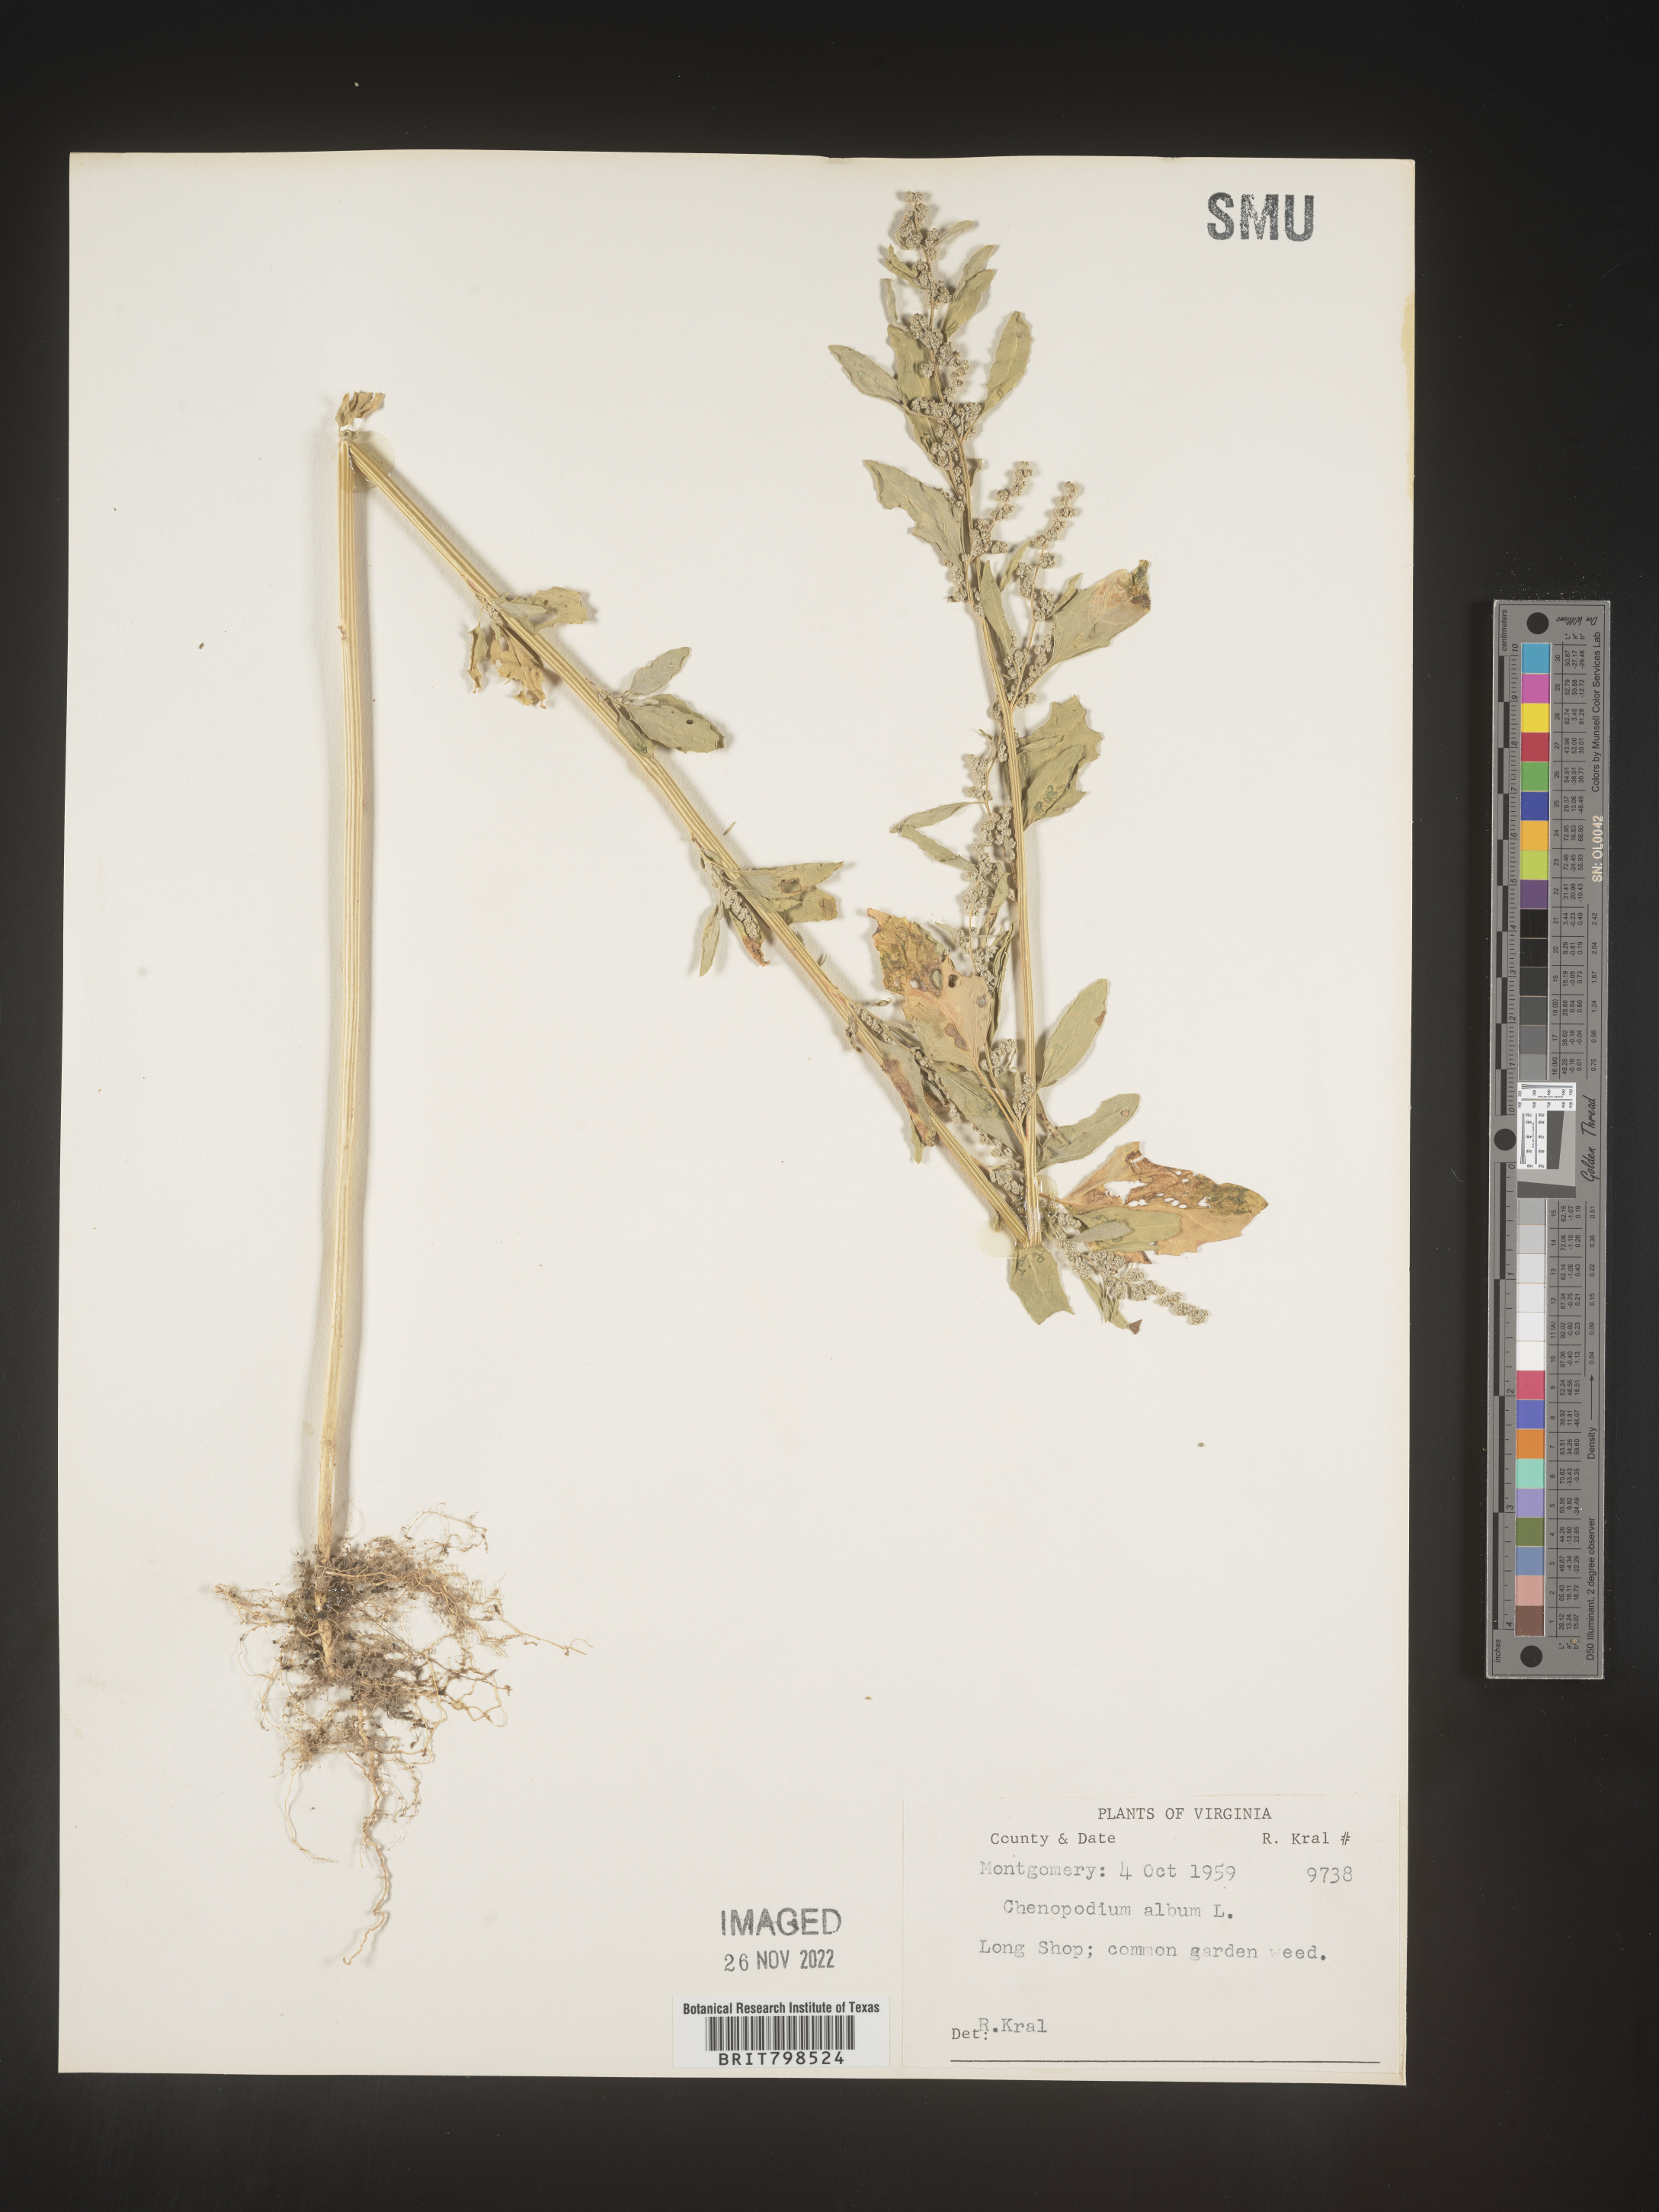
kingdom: Plantae
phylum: Tracheophyta
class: Magnoliopsida
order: Caryophyllales
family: Amaranthaceae
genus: Chenopodium
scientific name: Chenopodium album
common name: Fat-hen
